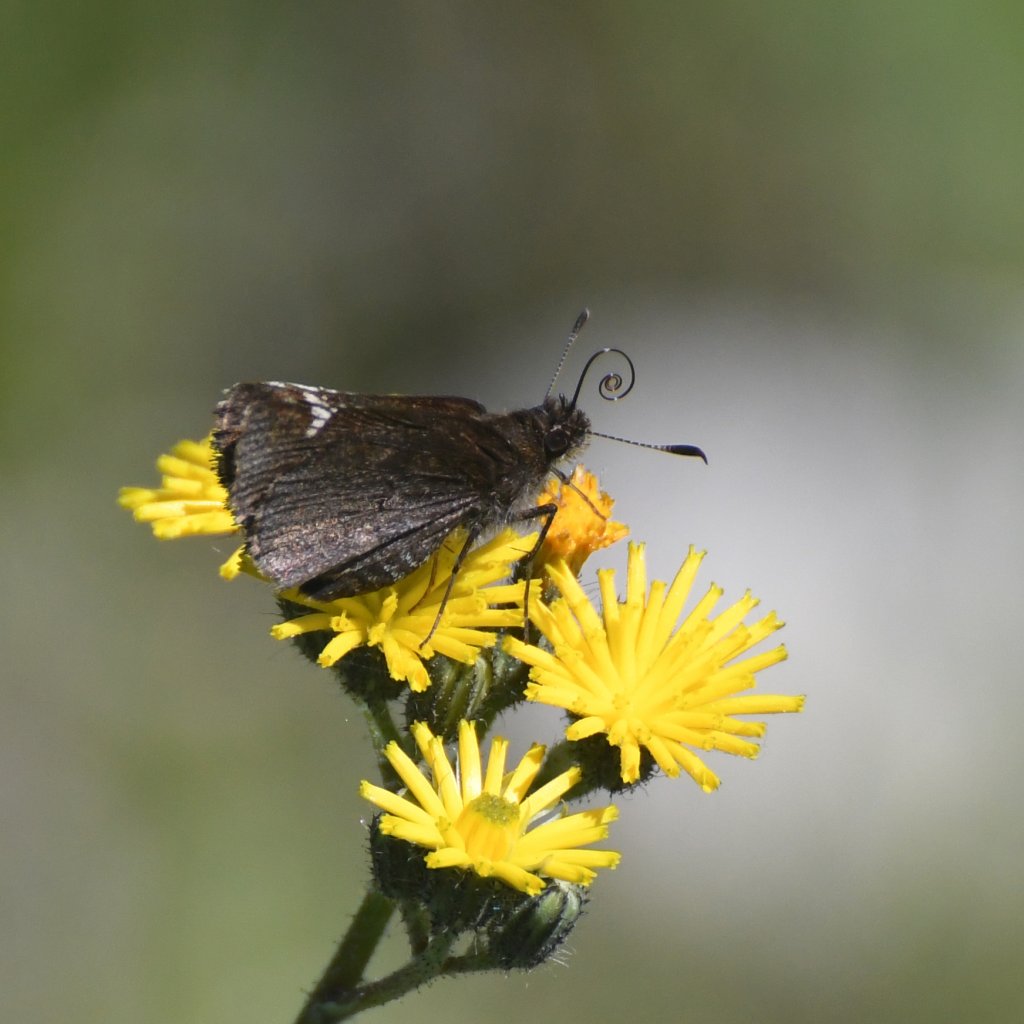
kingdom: Animalia
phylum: Arthropoda
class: Insecta
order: Lepidoptera
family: Hesperiidae
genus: Mastor
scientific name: Mastor vialis
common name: Common Roadside-Skipper
